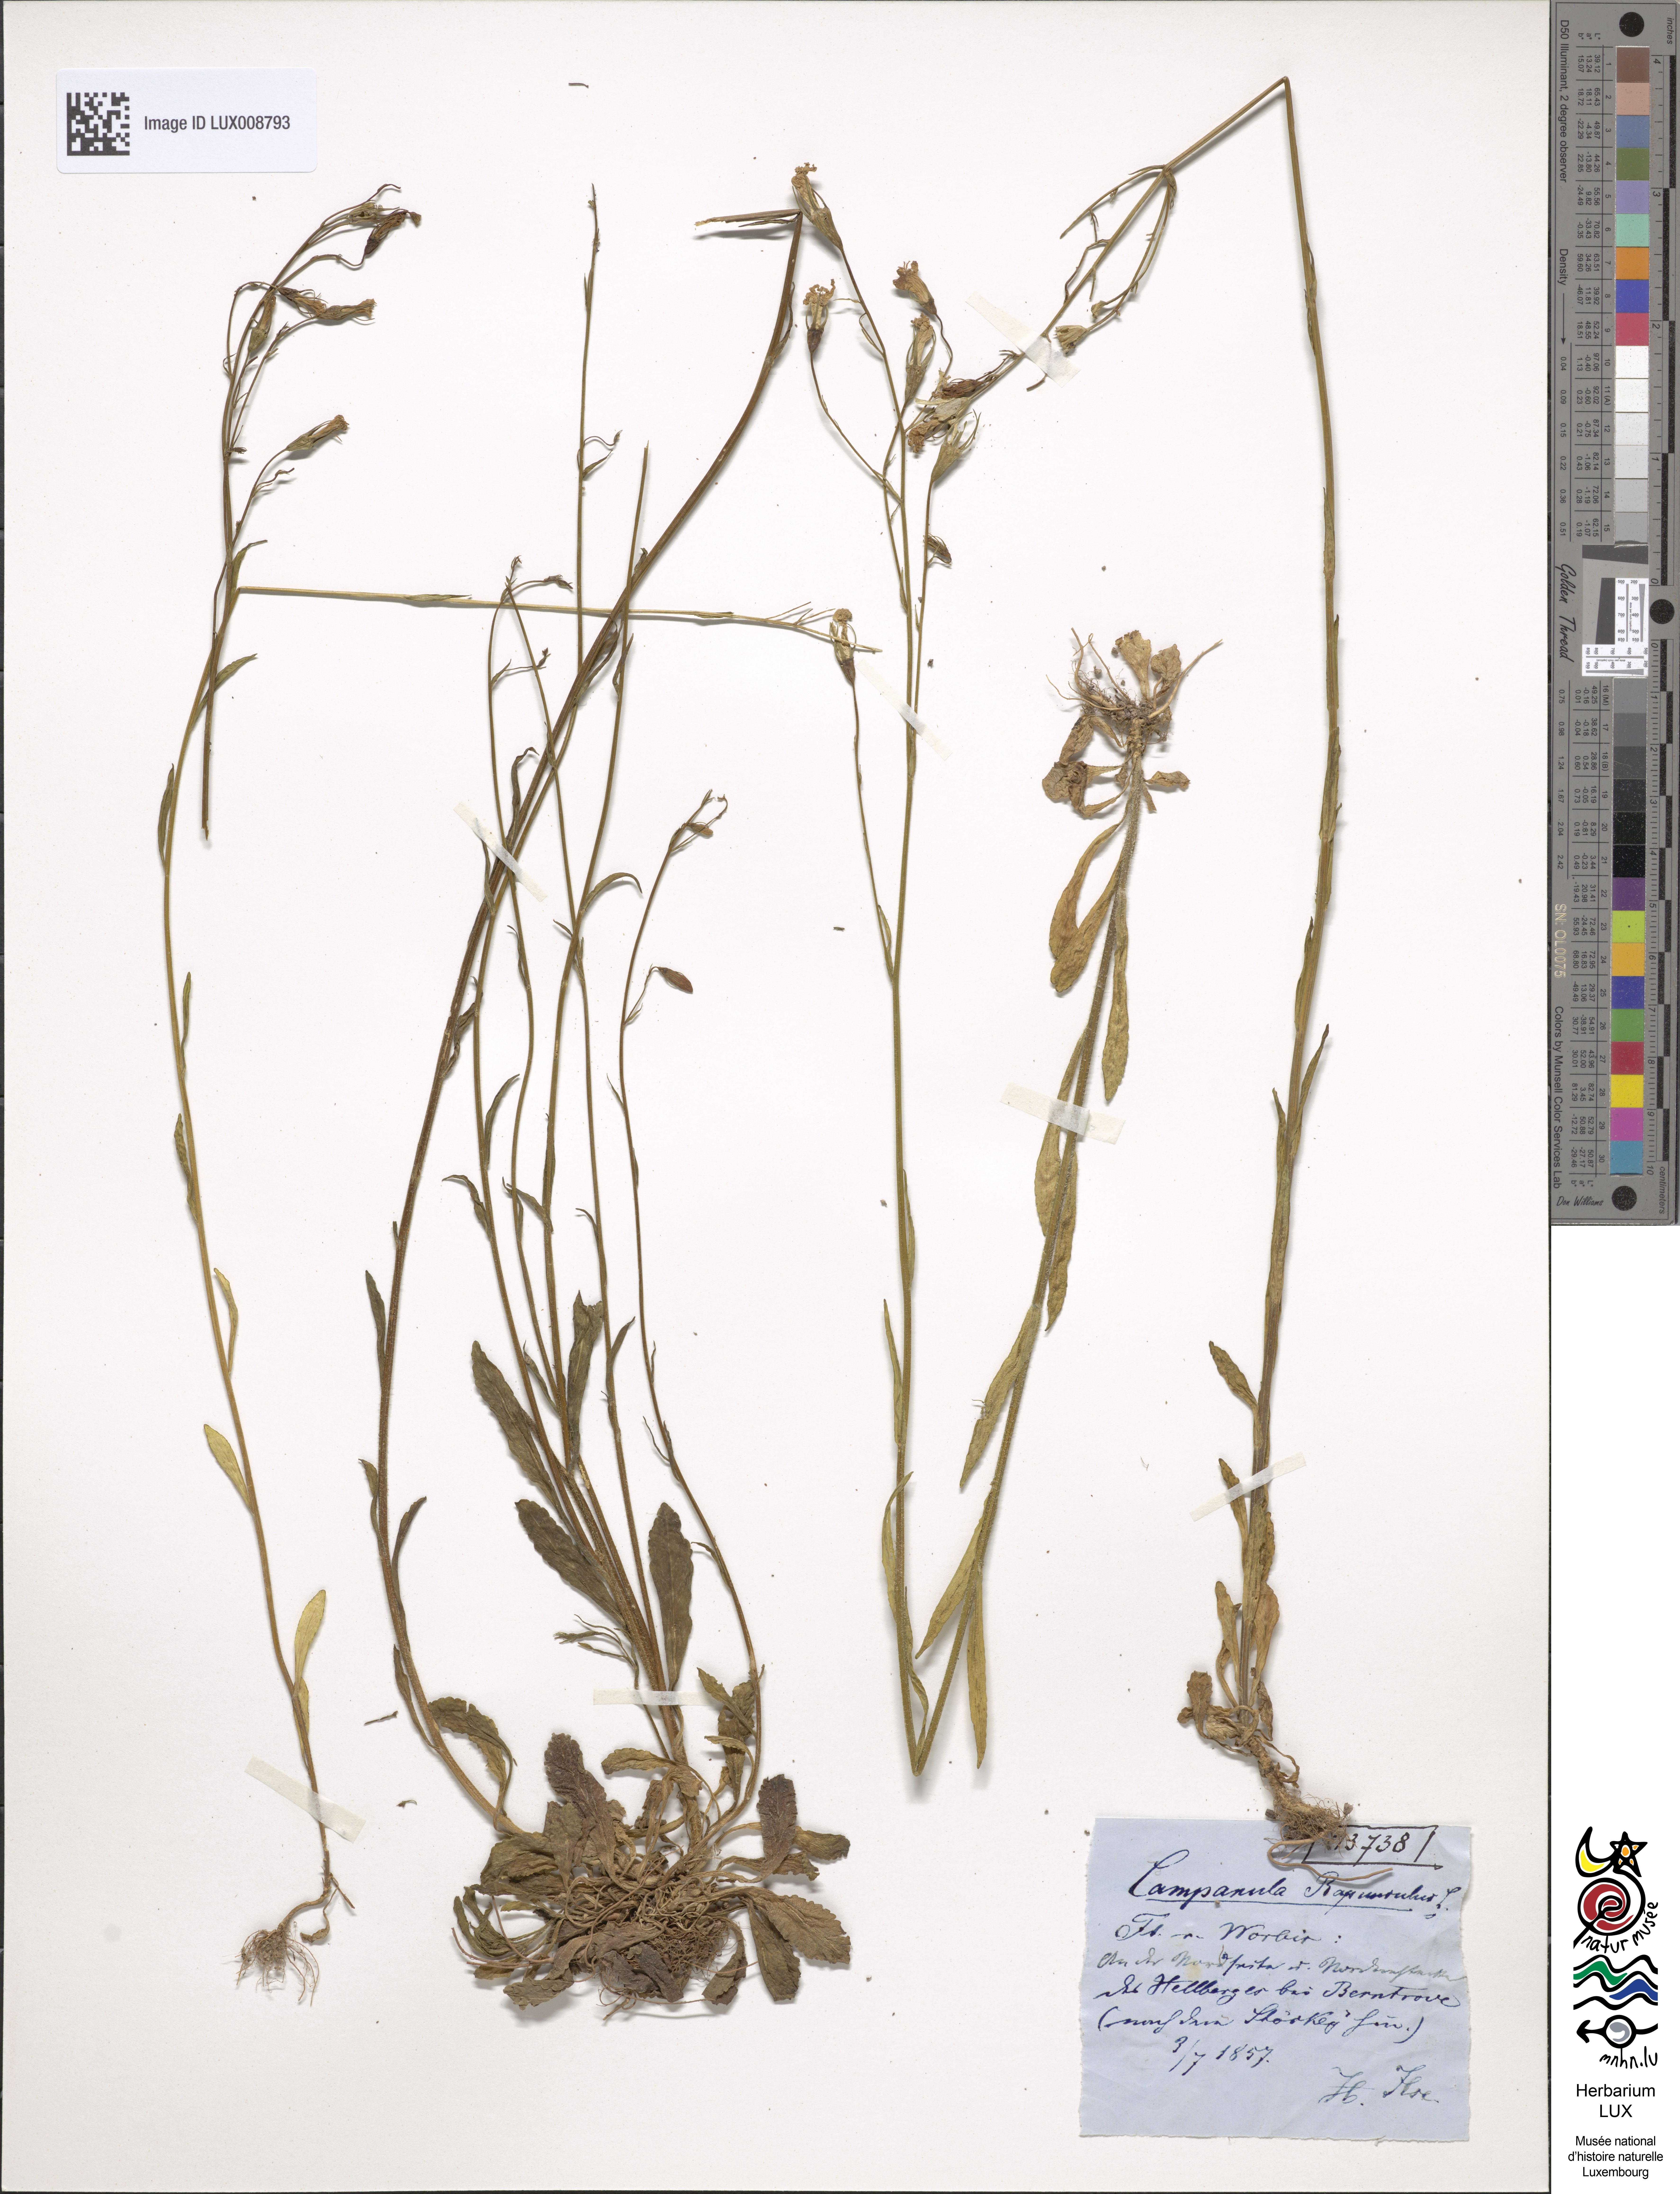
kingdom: Plantae
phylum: Tracheophyta
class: Magnoliopsida
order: Asterales
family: Campanulaceae
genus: Campanula
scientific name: Campanula rapunculus
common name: Rampion bellflower
